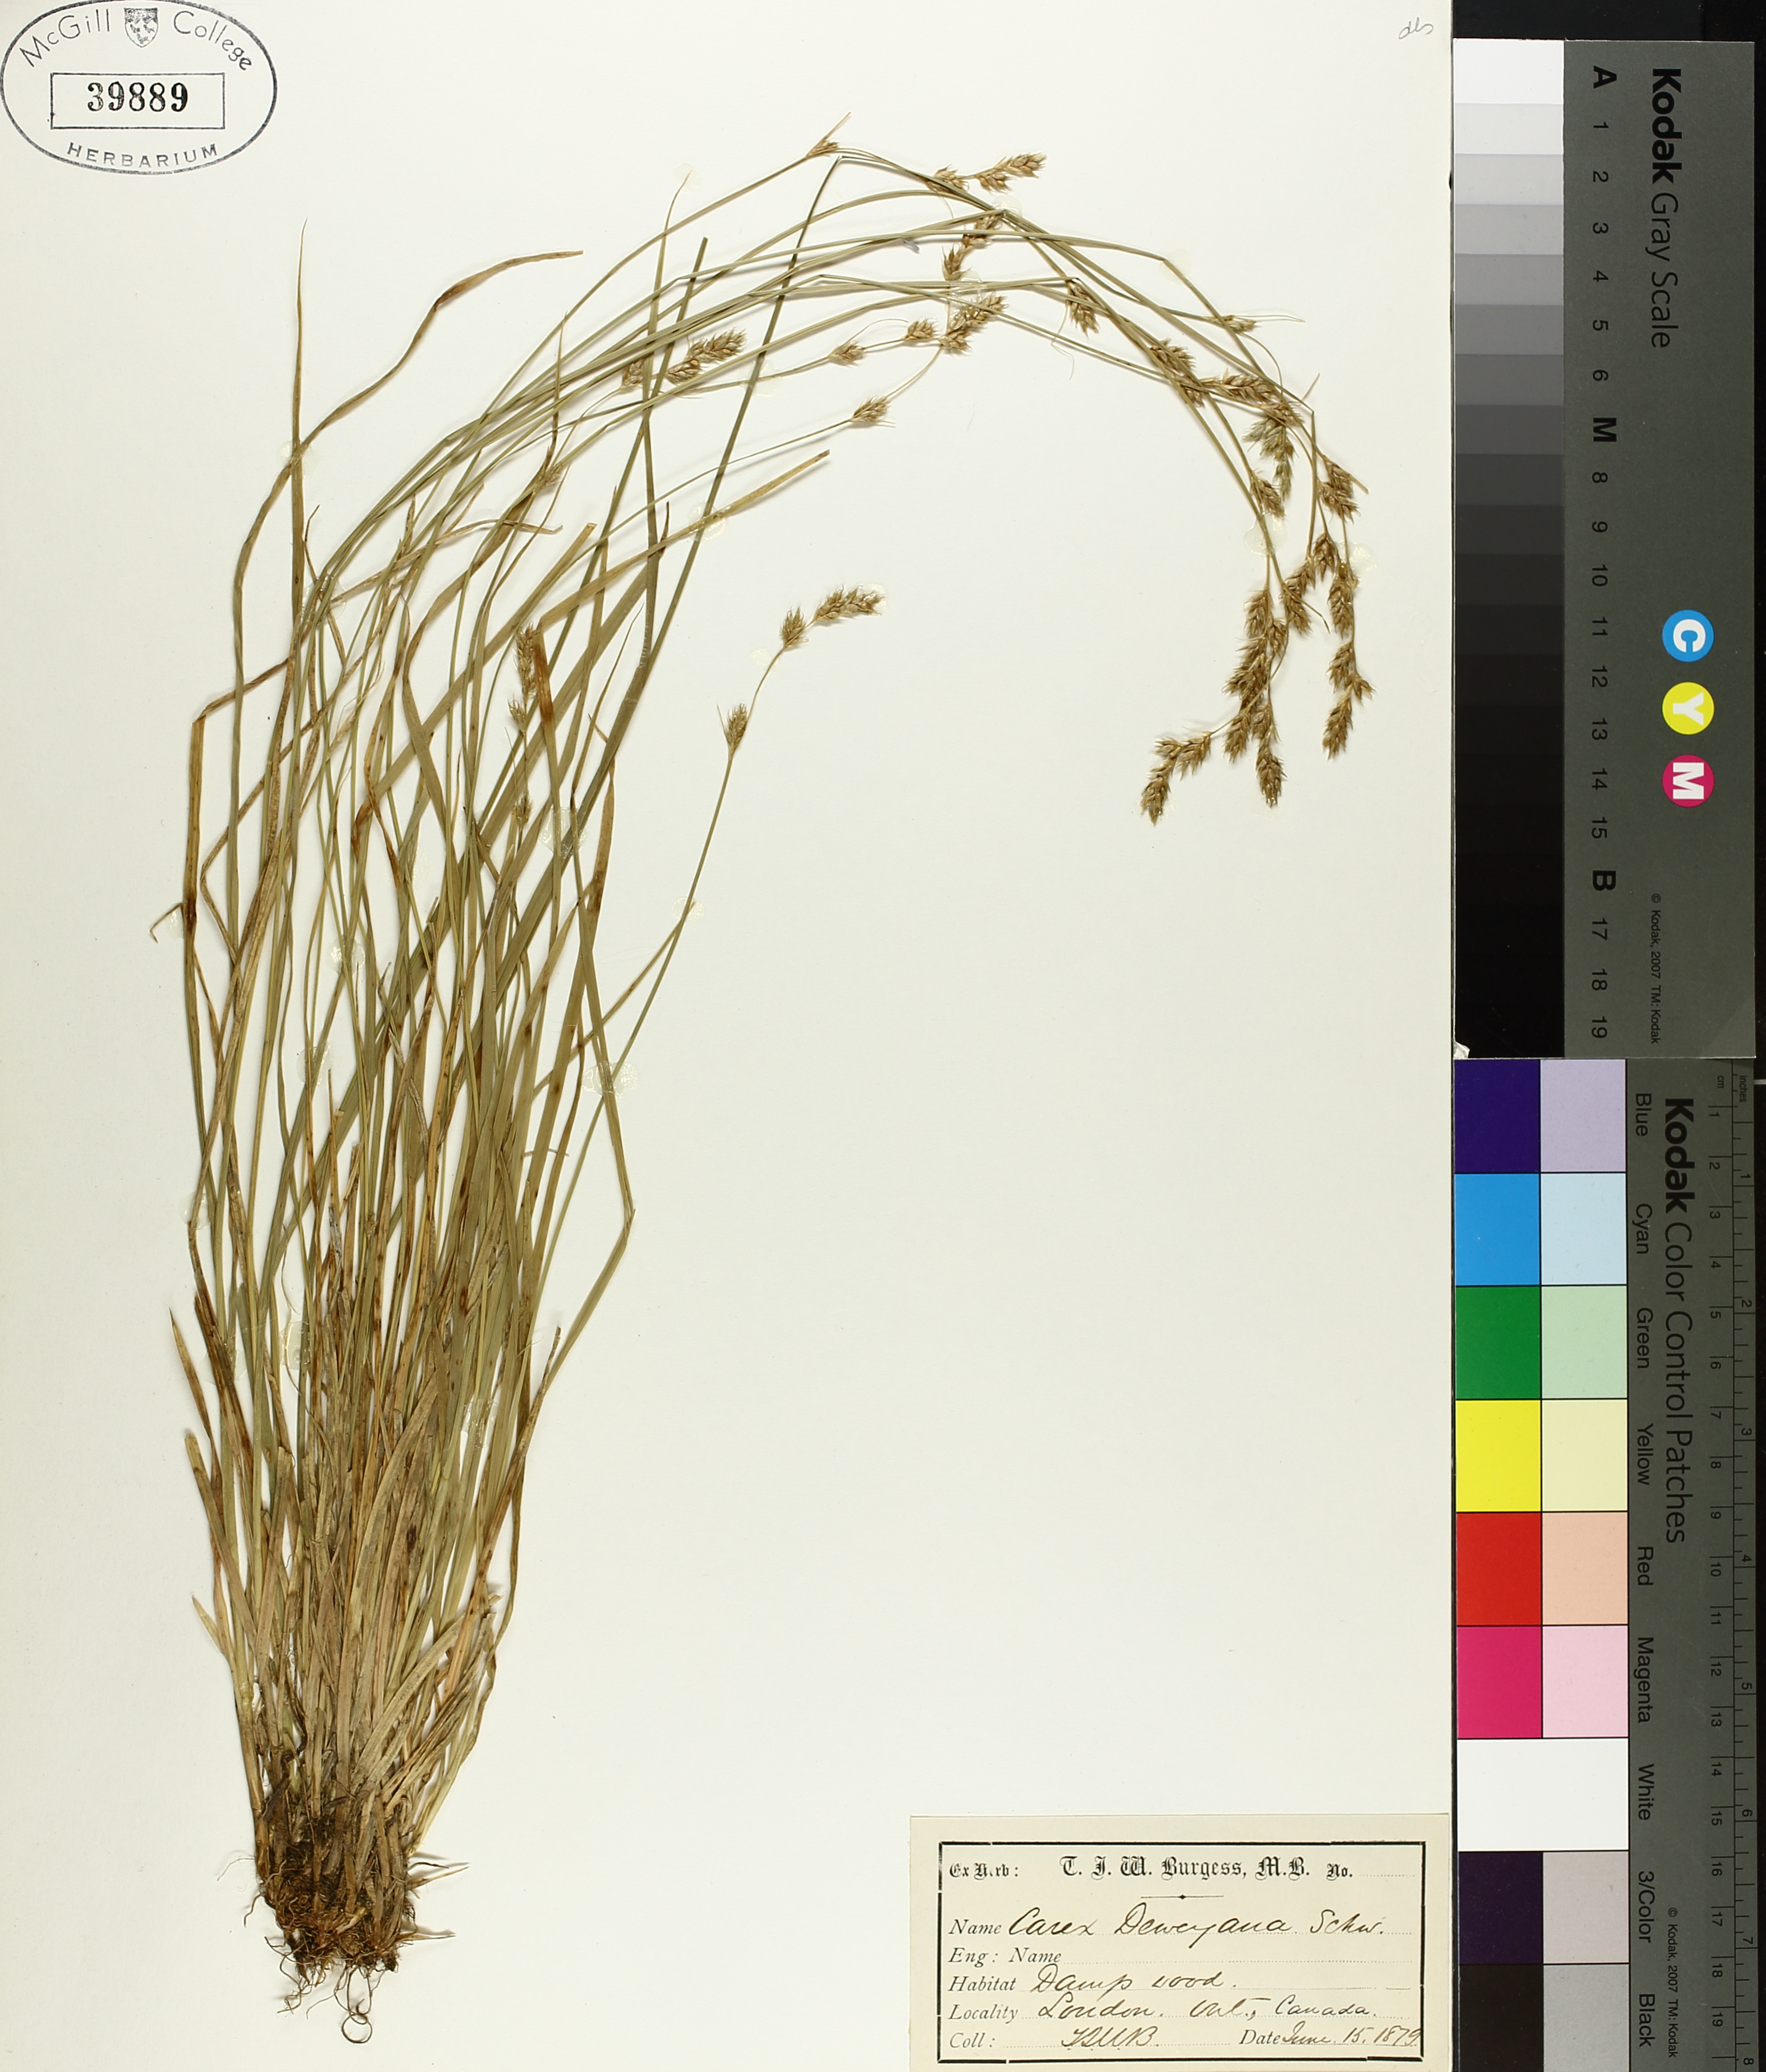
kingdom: Plantae
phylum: Tracheophyta
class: Liliopsida
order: Poales
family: Cyperaceae
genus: Carex
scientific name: Carex deweyana
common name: Dewey's sedge
